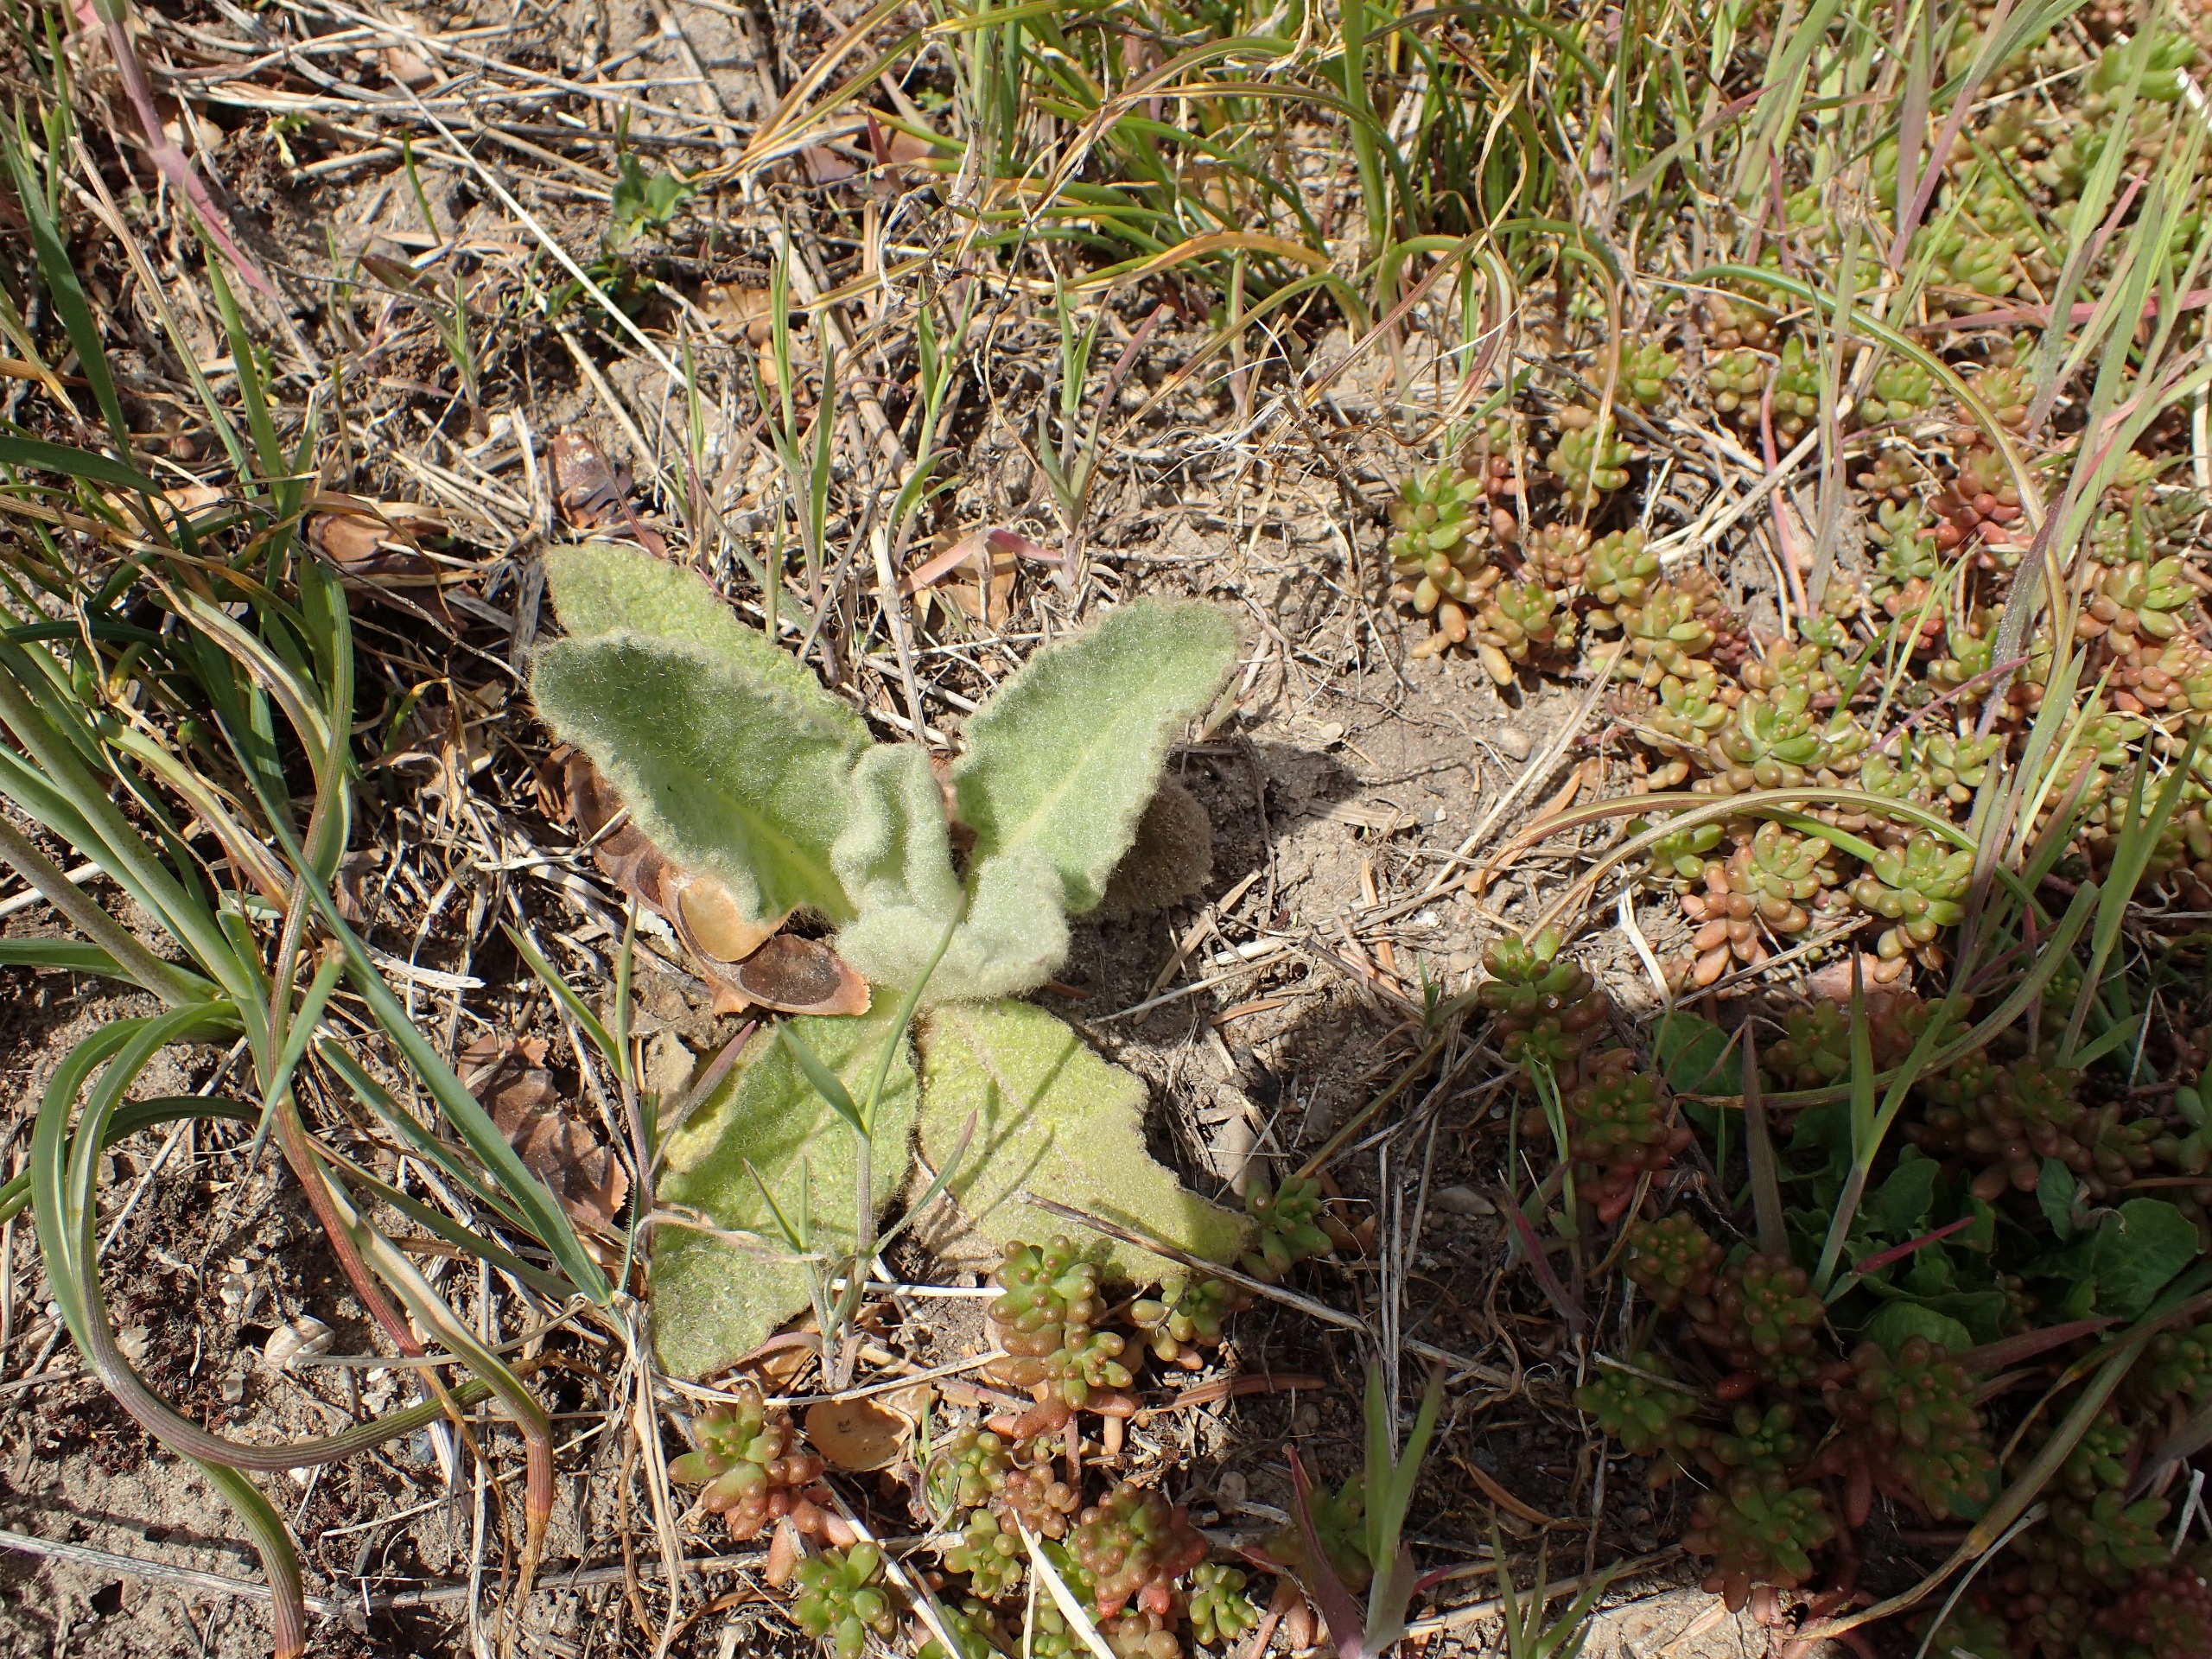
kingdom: Plantae
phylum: Tracheophyta
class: Magnoliopsida
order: Lamiales
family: Scrophulariaceae
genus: Verbascum
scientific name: Verbascum thapsus
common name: Filtbladet kongelys
